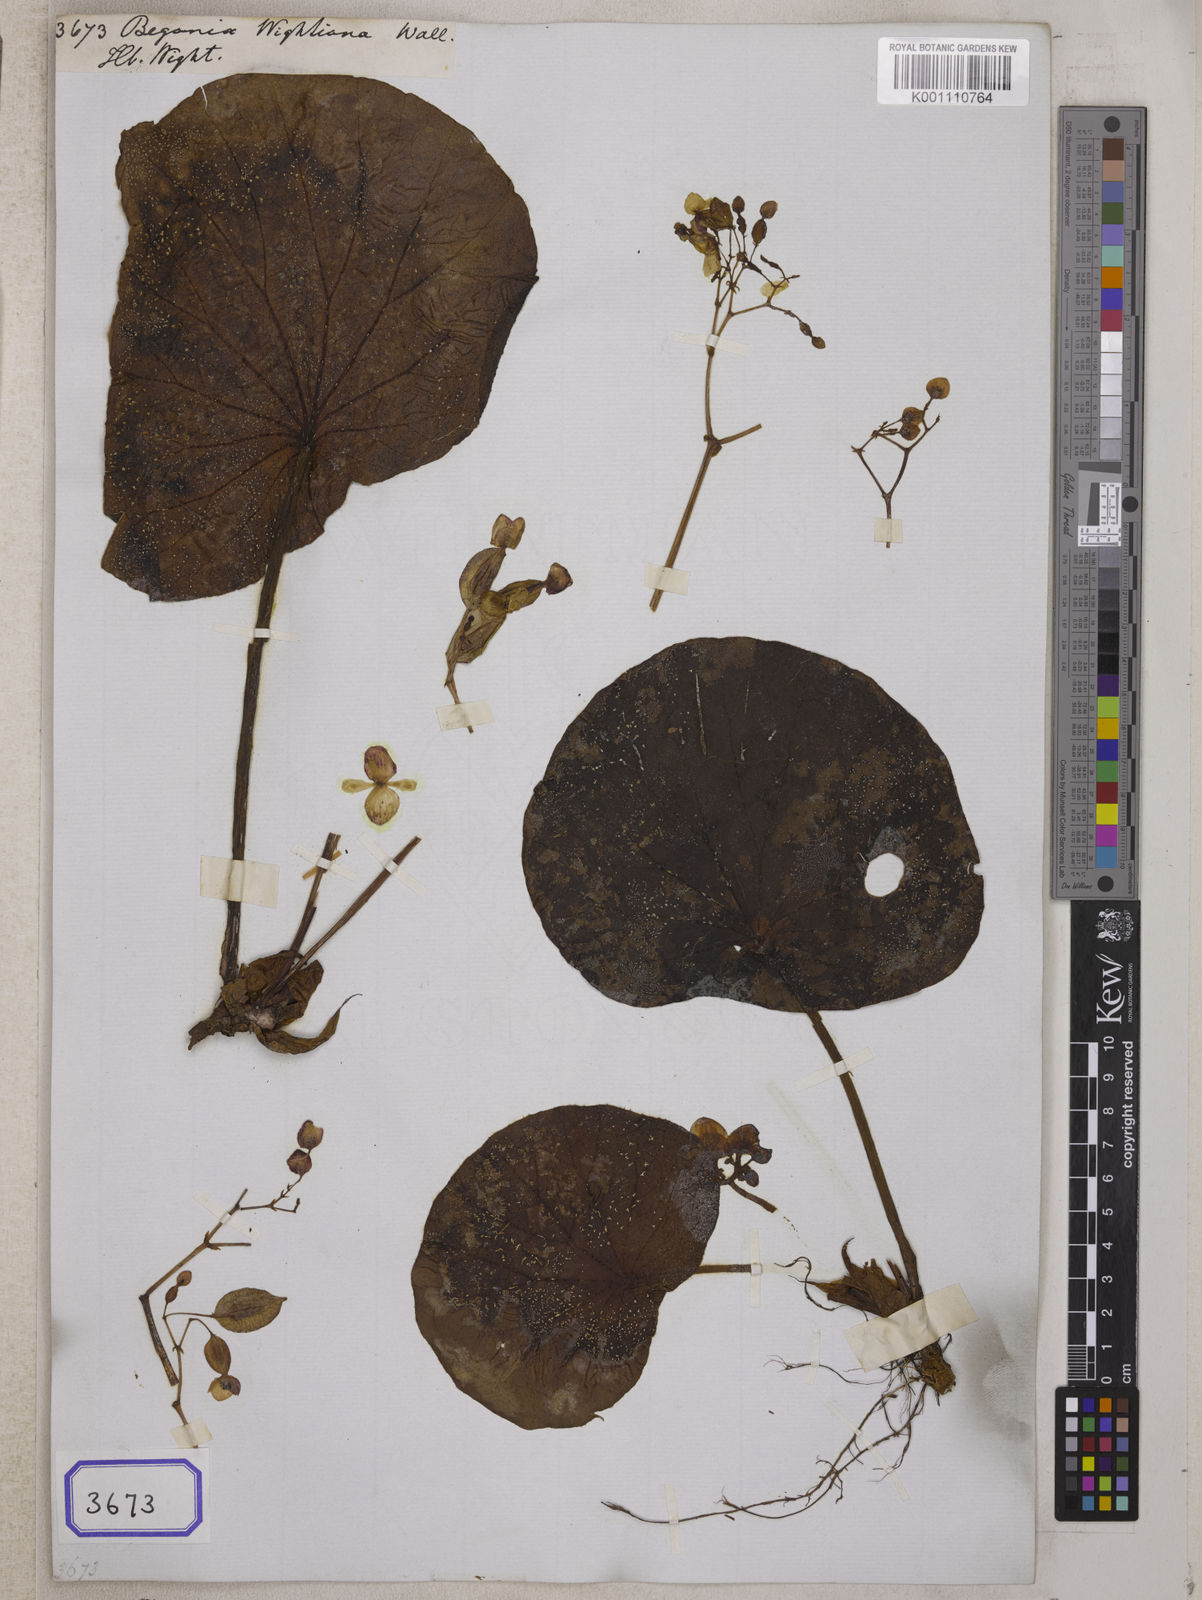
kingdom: Plantae
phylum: Tracheophyta
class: Magnoliopsida
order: Cucurbitales
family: Begoniaceae
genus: Begonia
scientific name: Begonia albococcinea
